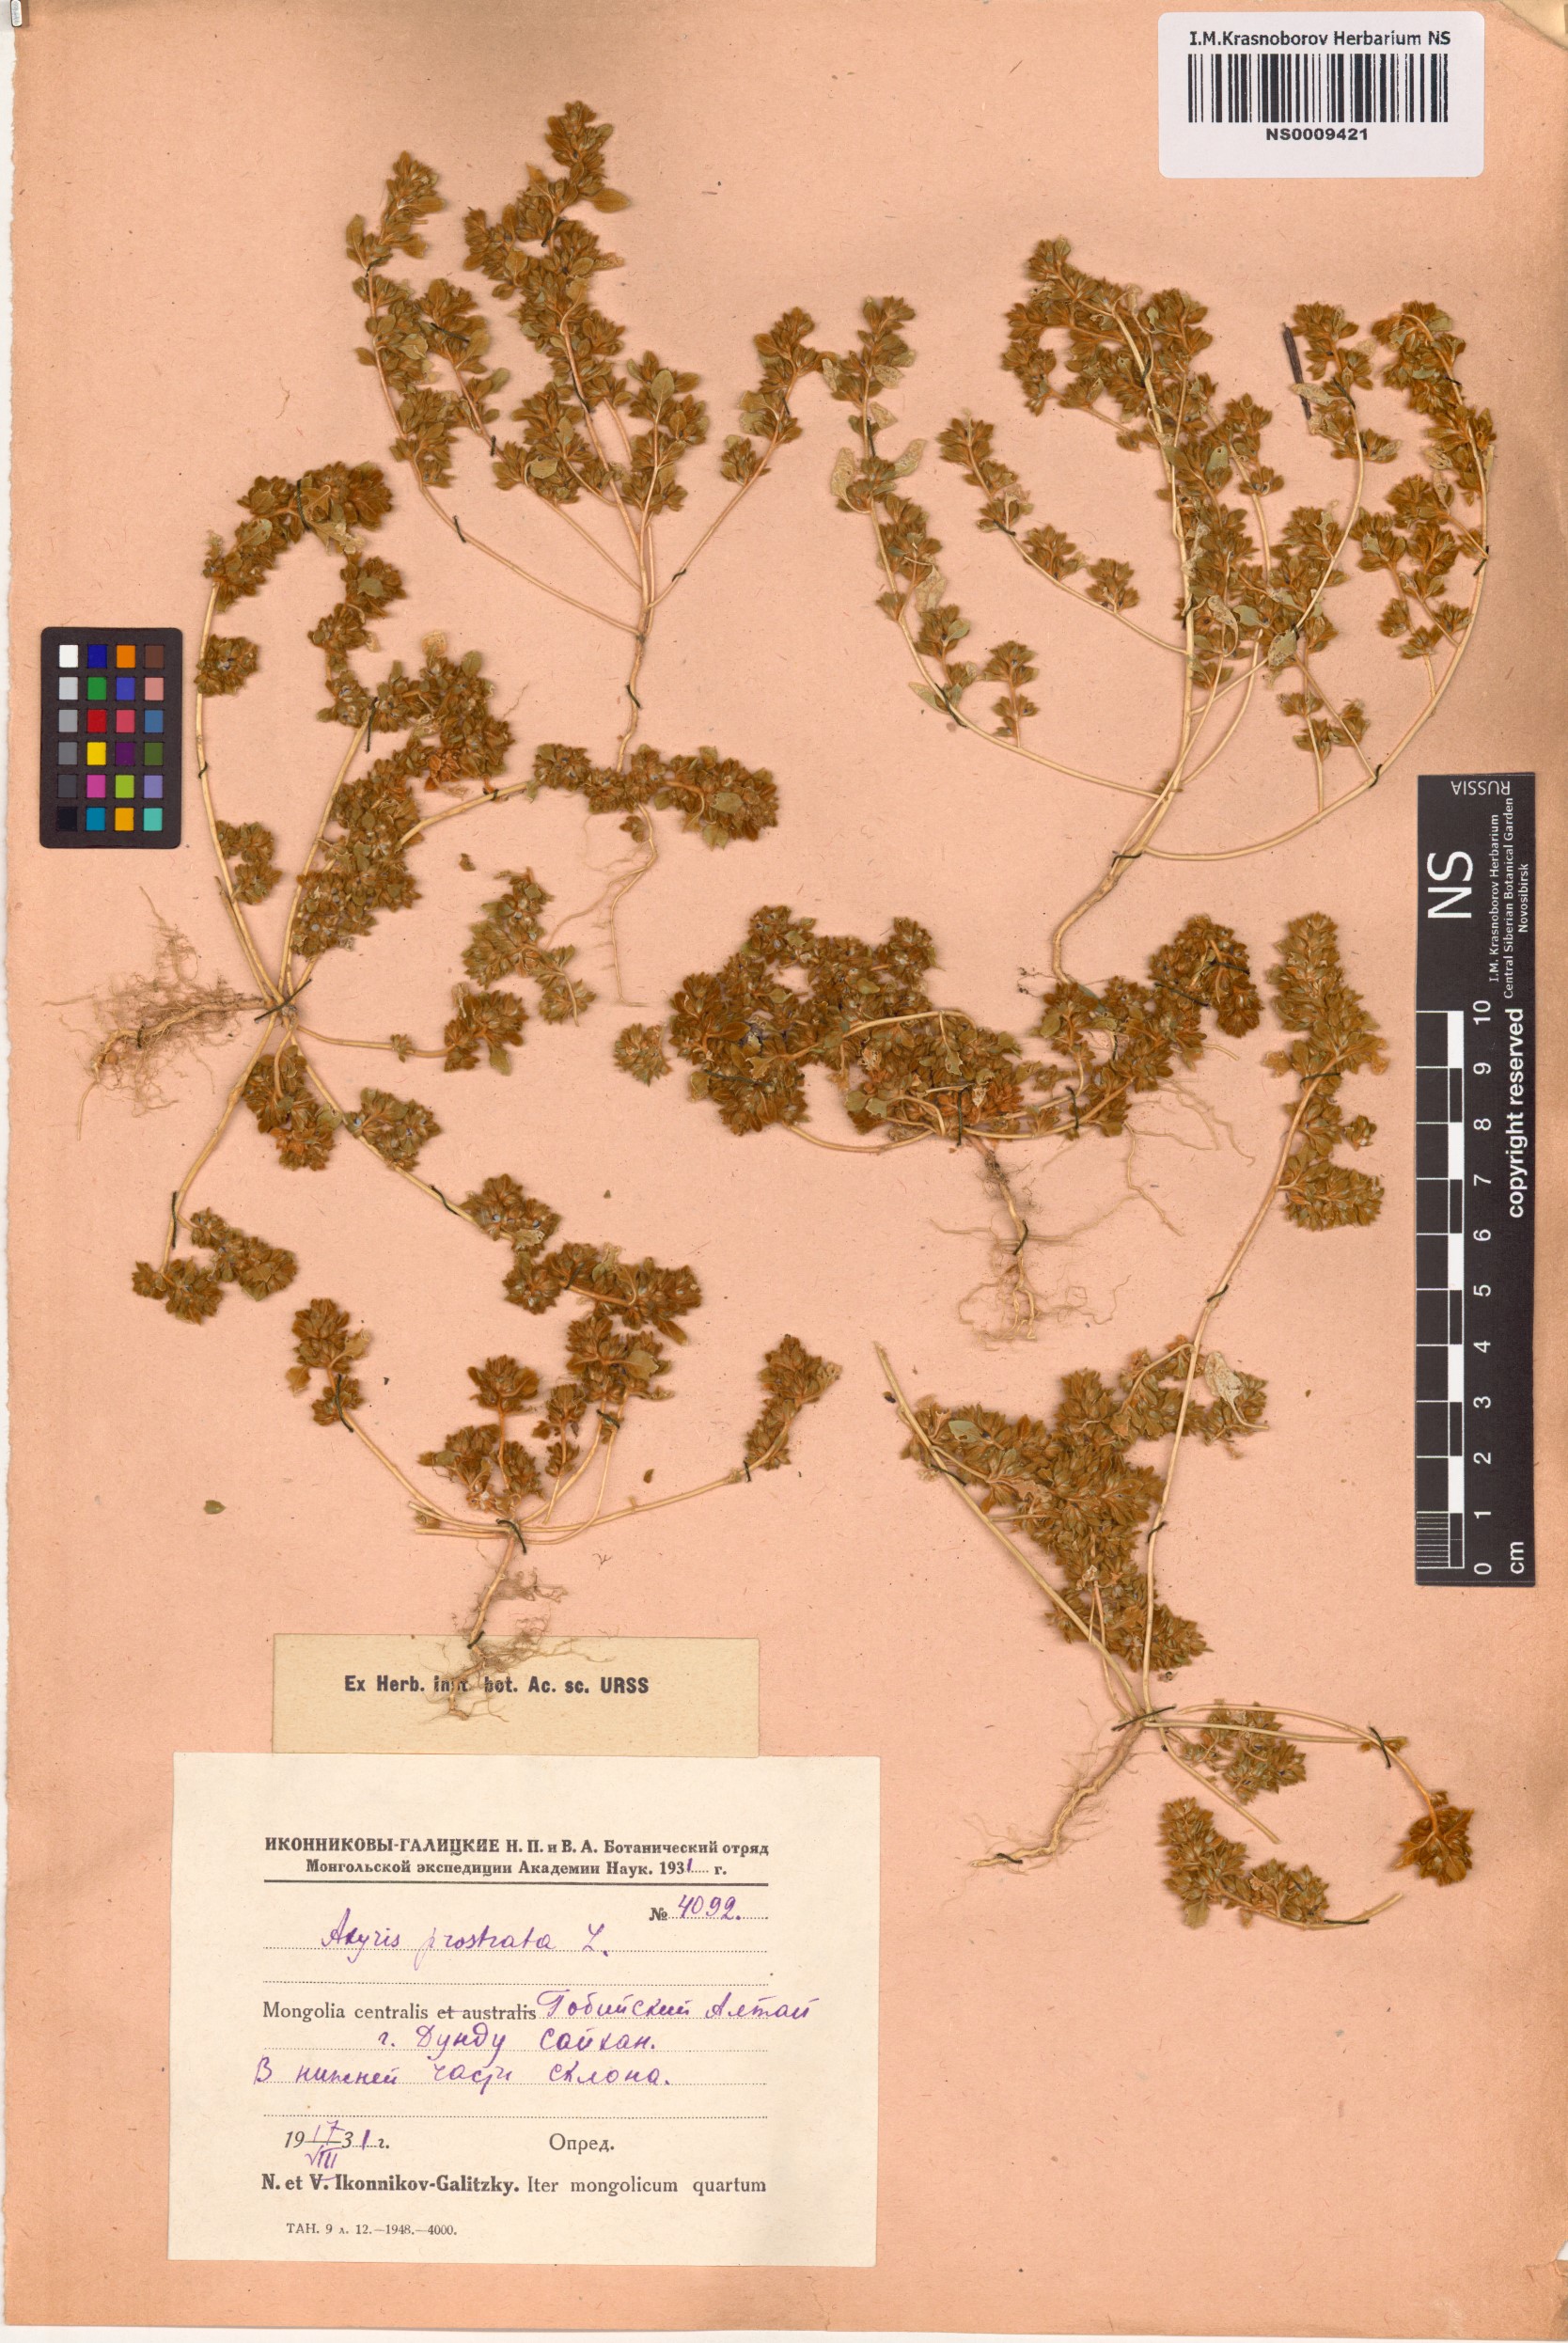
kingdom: Plantae
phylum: Tracheophyta
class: Magnoliopsida
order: Caryophyllales
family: Amaranthaceae
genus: Axyris
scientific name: Axyris prostrata
